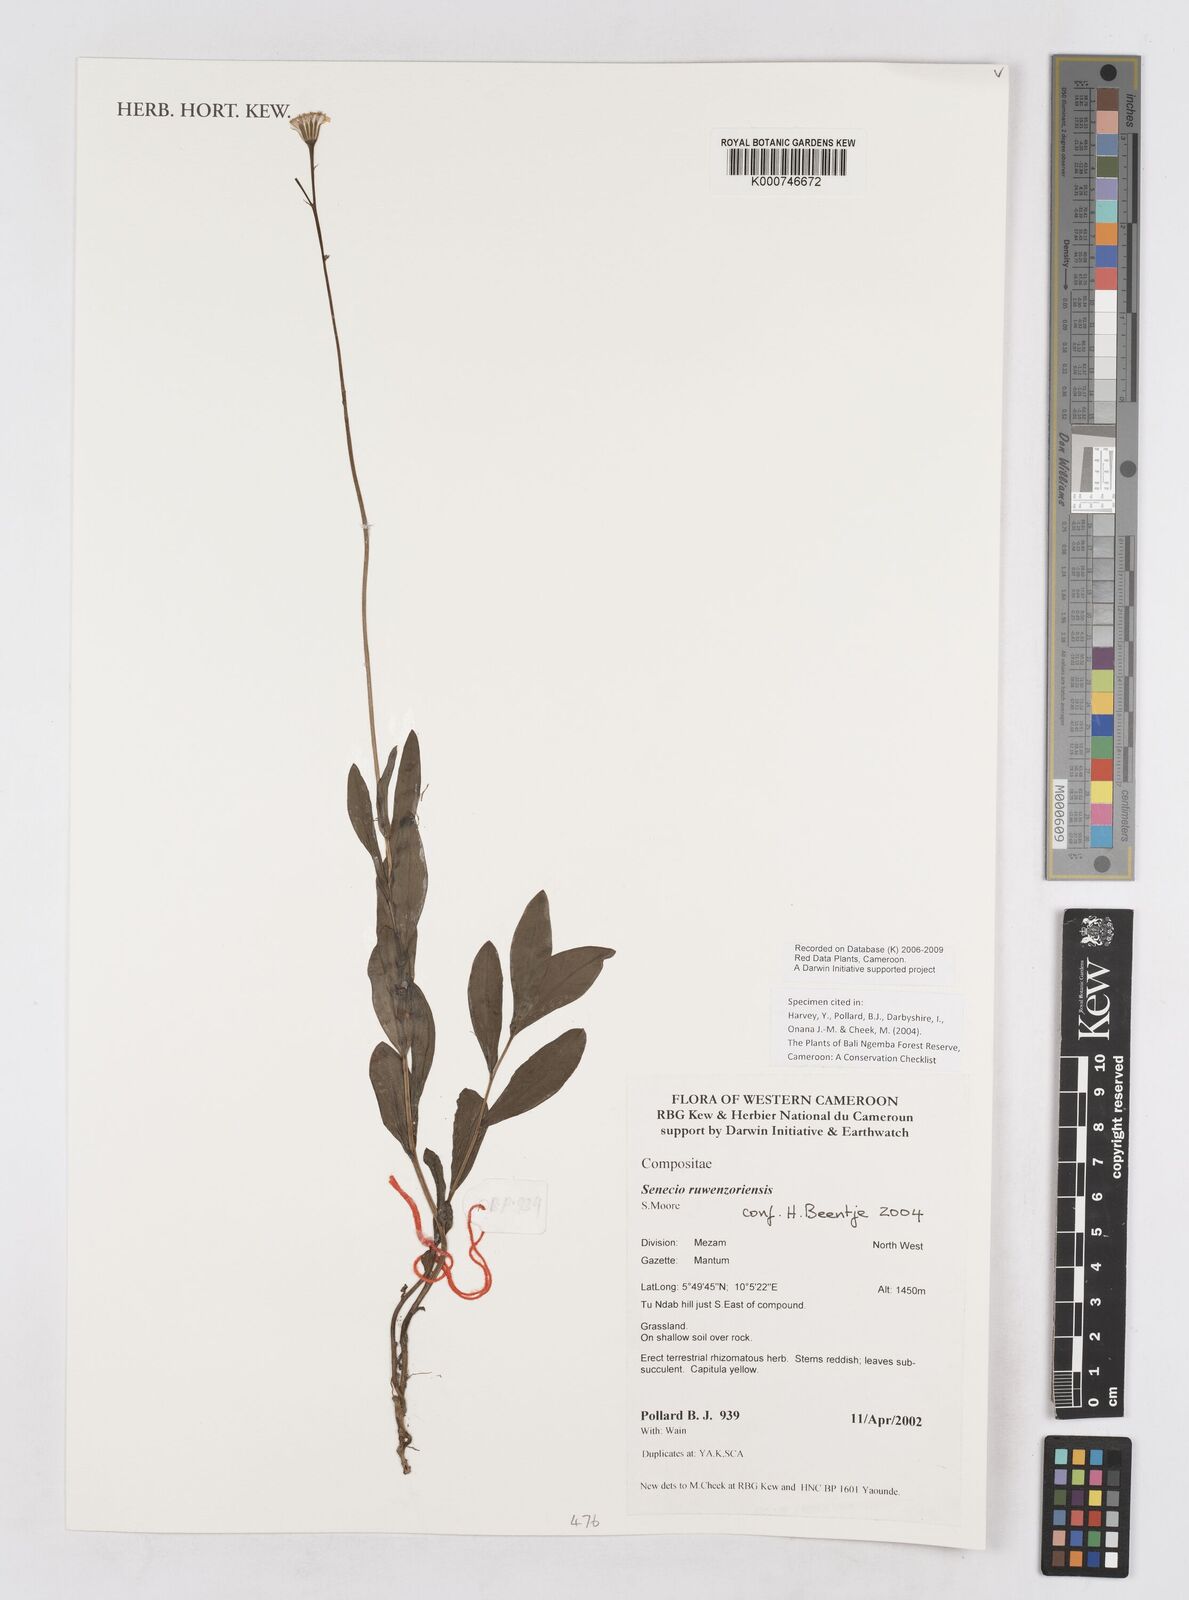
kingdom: Plantae
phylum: Tracheophyta
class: Magnoliopsida
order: Asterales
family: Asteraceae
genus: Senecio
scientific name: Senecio ruwenzoriensis
